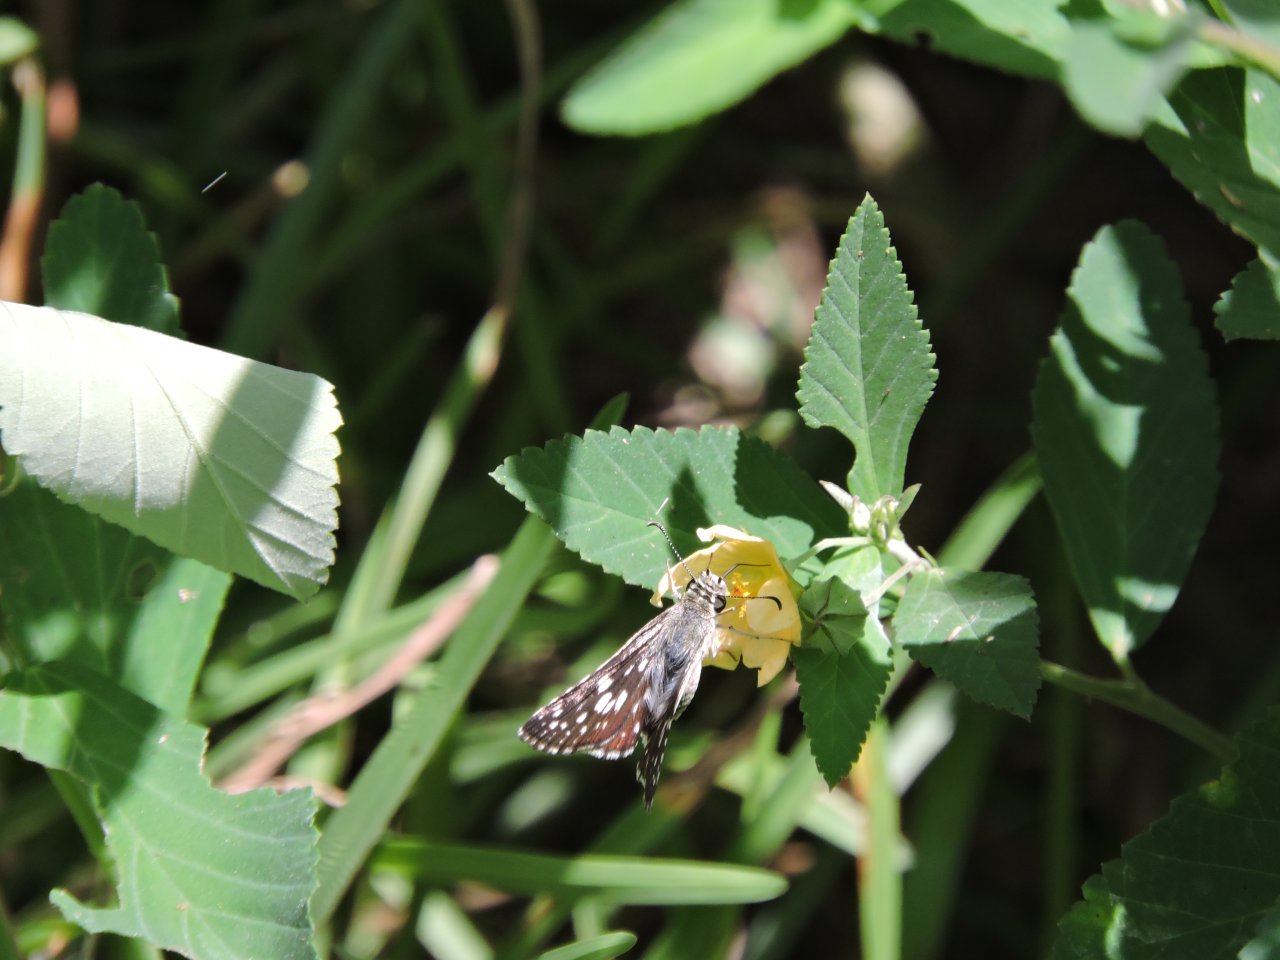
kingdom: Animalia
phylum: Arthropoda
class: Insecta
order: Lepidoptera
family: Hesperiidae
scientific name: Hesperiidae
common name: Skippers
